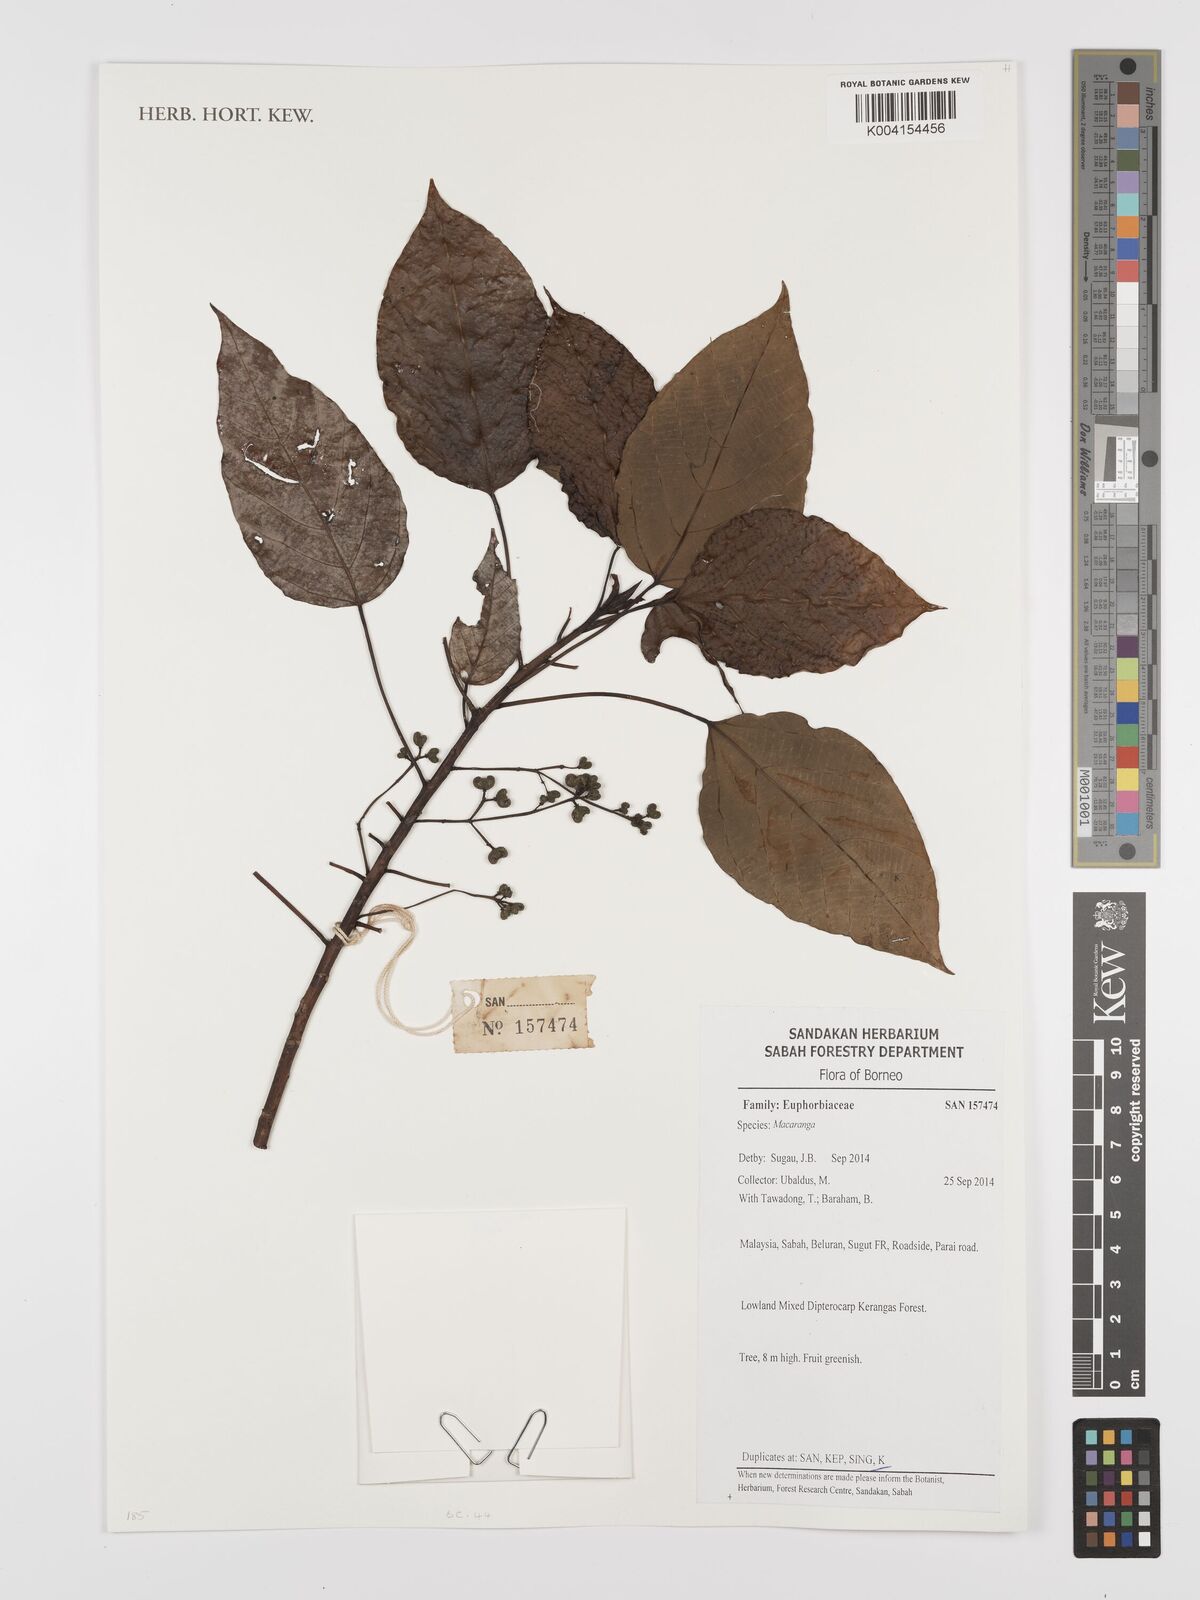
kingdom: Plantae
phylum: Tracheophyta
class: Magnoliopsida
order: Malpighiales
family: Euphorbiaceae
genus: Macaranga
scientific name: Macaranga
